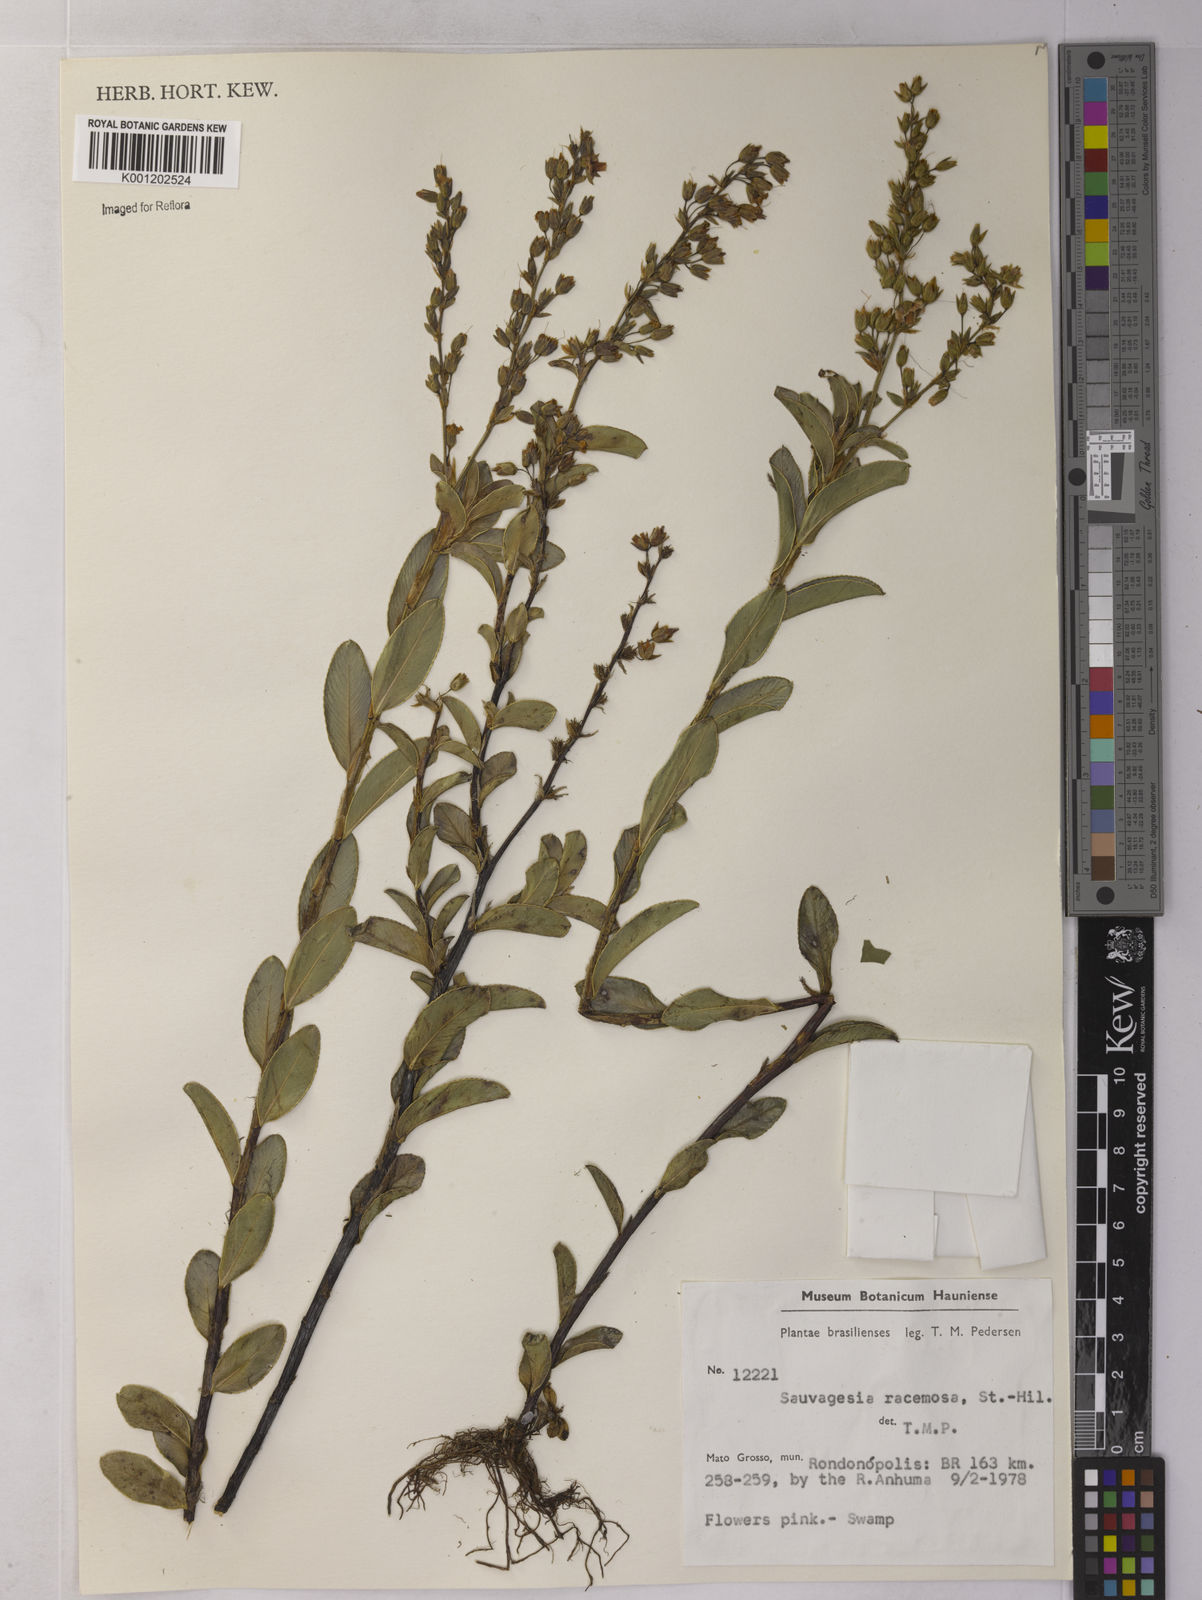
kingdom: Plantae
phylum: Tracheophyta
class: Magnoliopsida
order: Malpighiales
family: Ochnaceae
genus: Sauvagesia
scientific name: Sauvagesia racemosa
